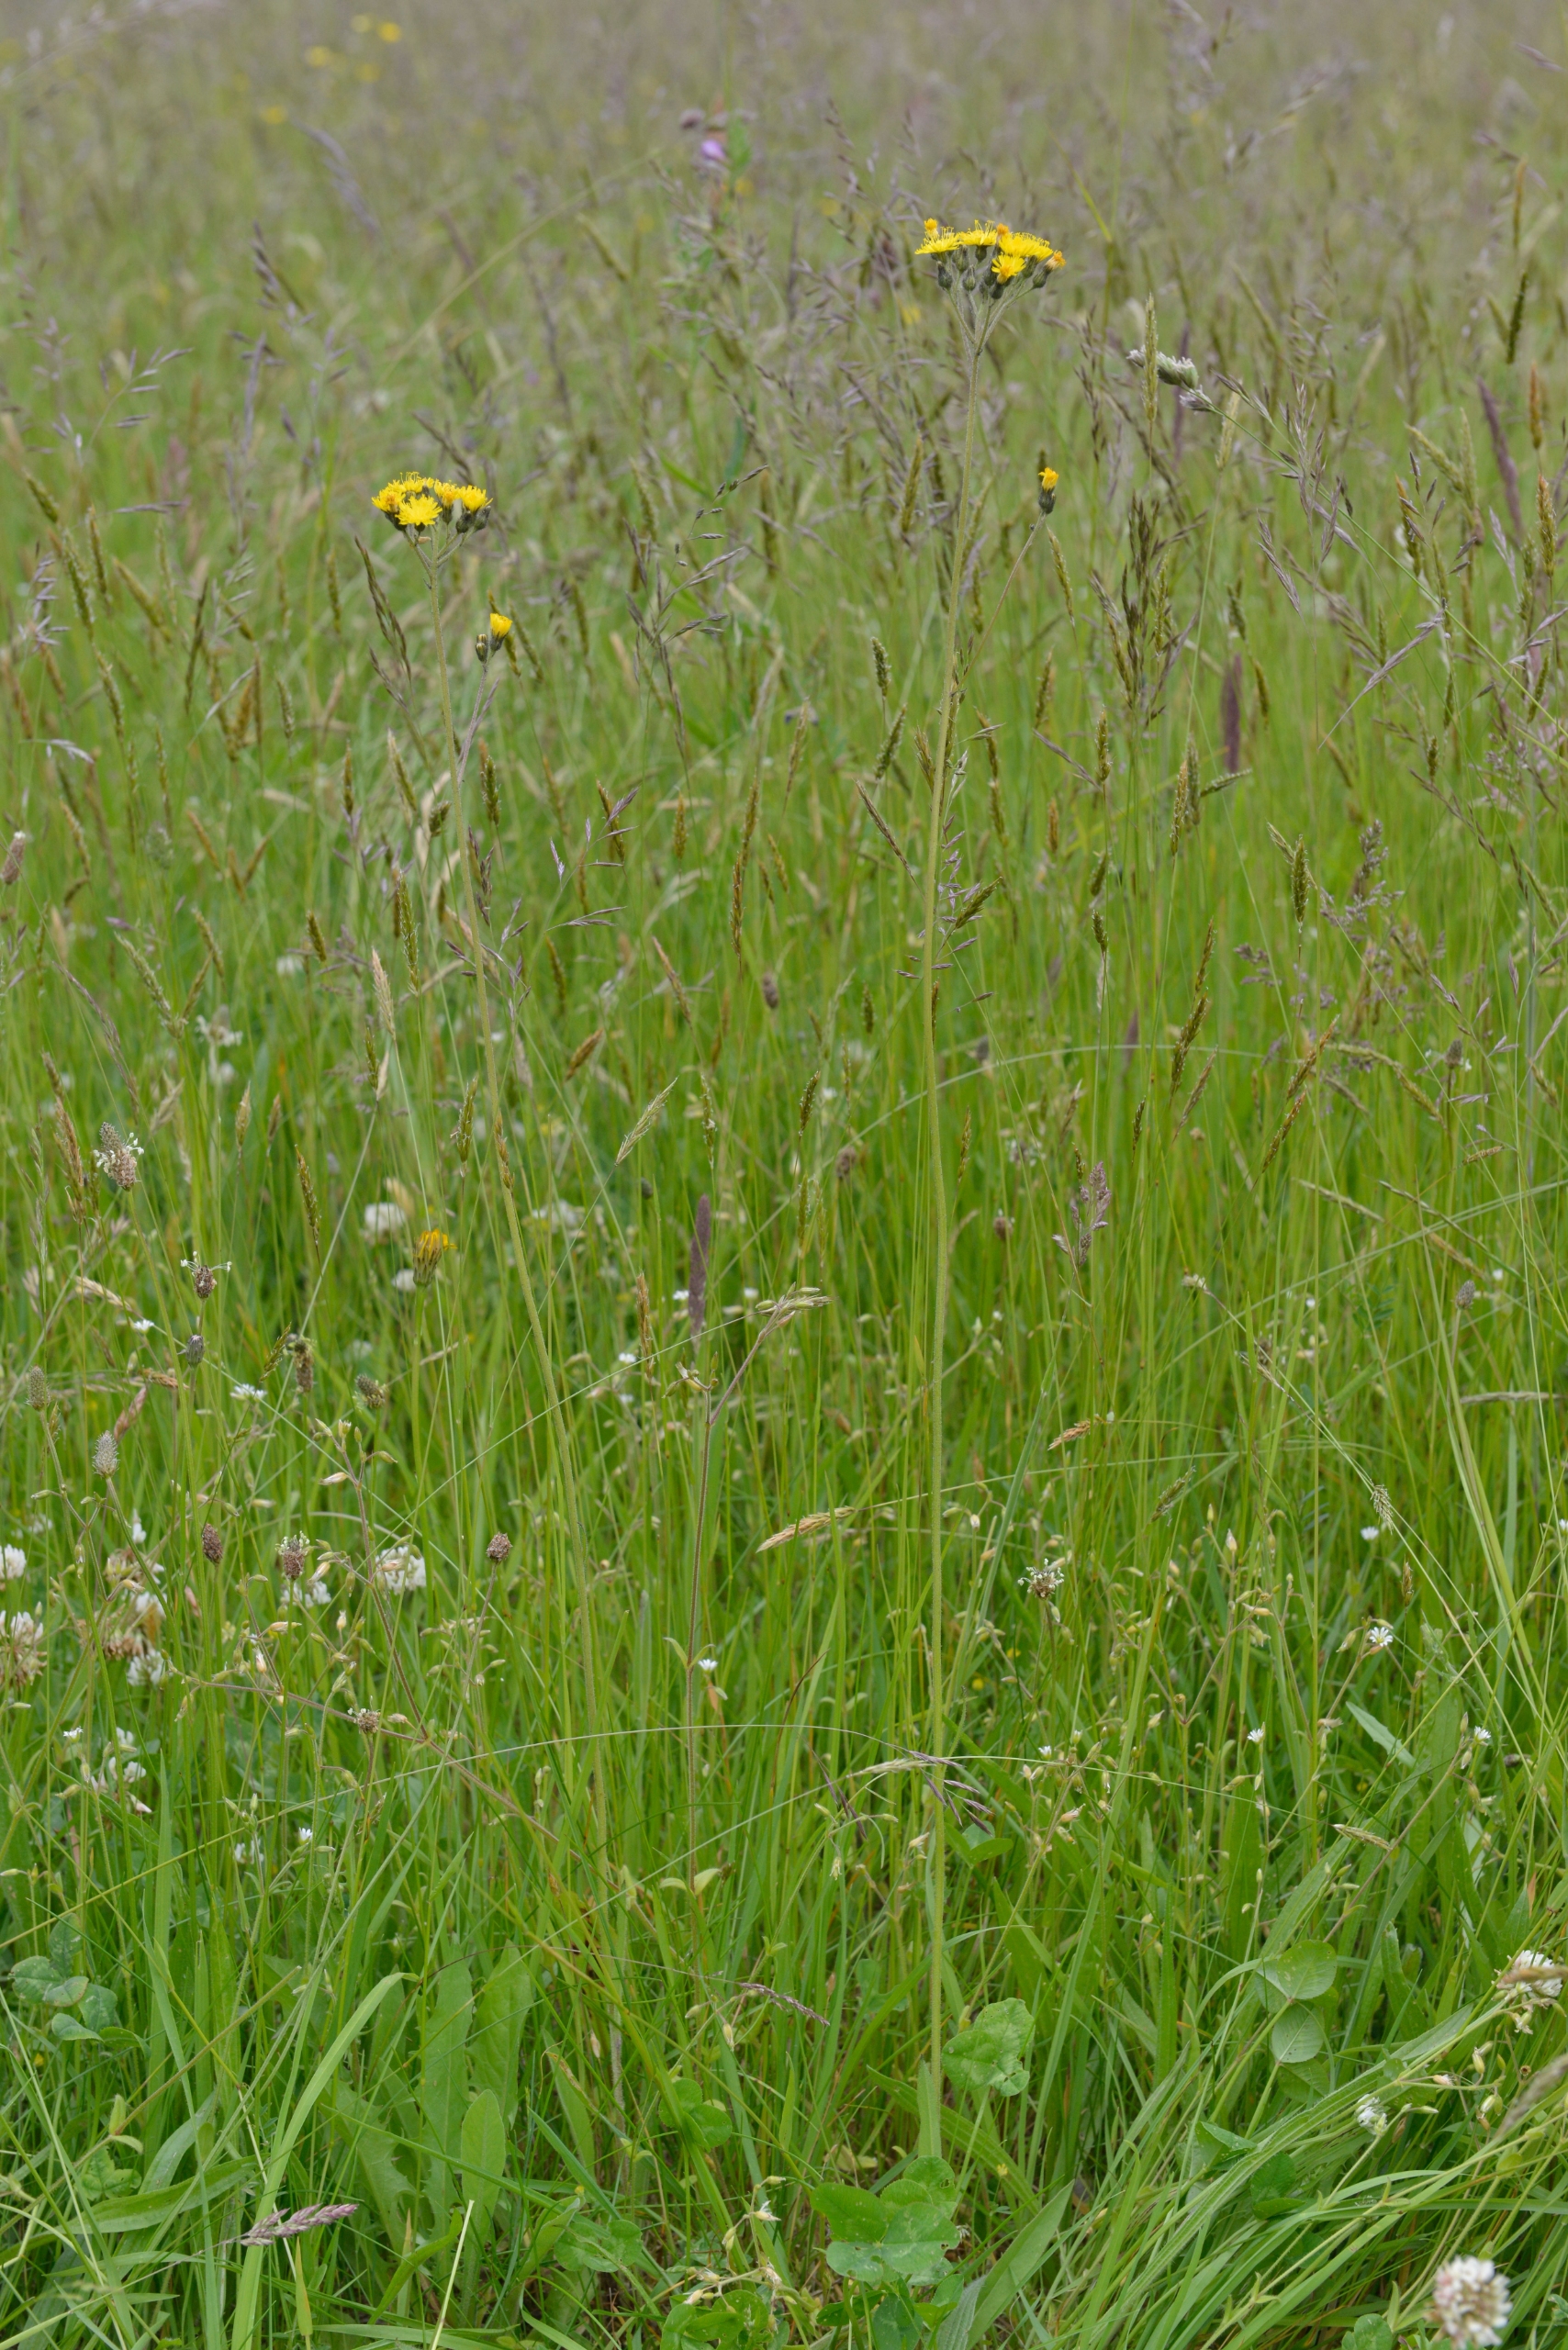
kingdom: Plantae
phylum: Tracheophyta
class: Magnoliopsida
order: Asterales
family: Asteraceae
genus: Pilosella
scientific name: Pilosella cymosa
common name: Kvast-høgeurt
